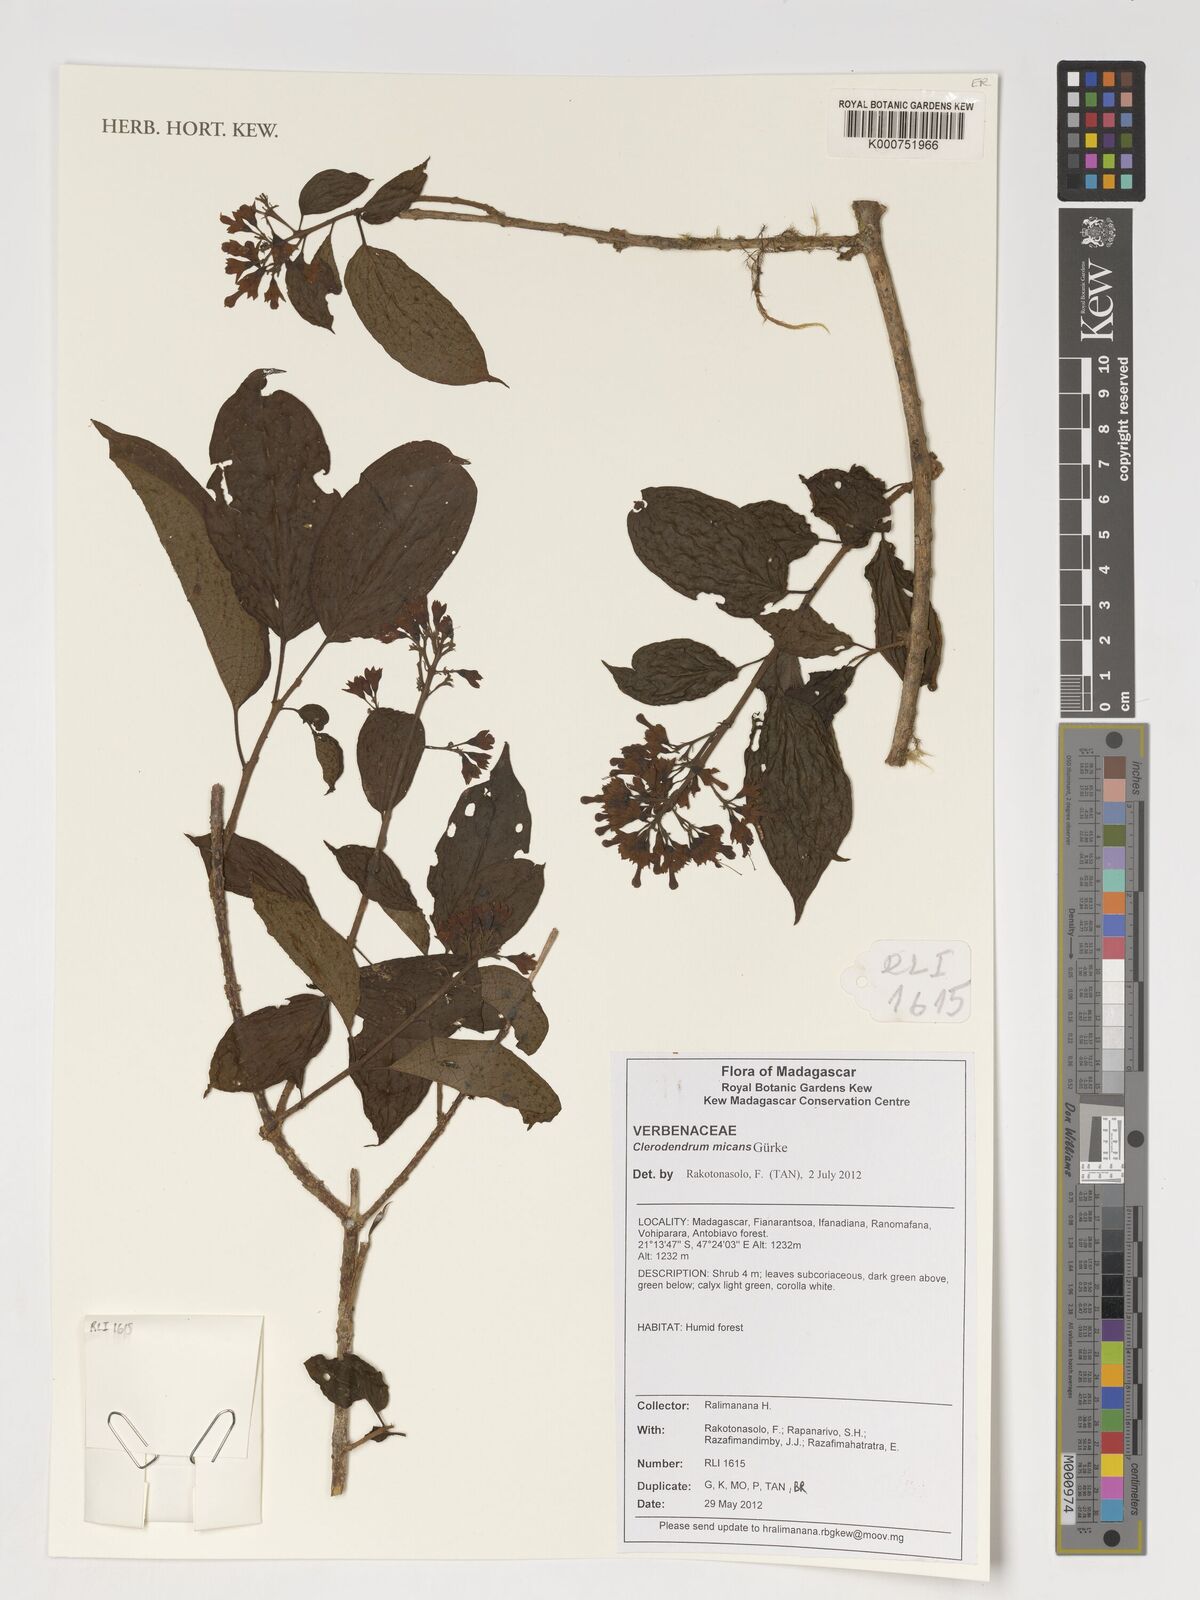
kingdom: Plantae
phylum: Tracheophyta
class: Magnoliopsida
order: Lamiales
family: Lamiaceae
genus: Clerodendrum
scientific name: Clerodendrum micans
